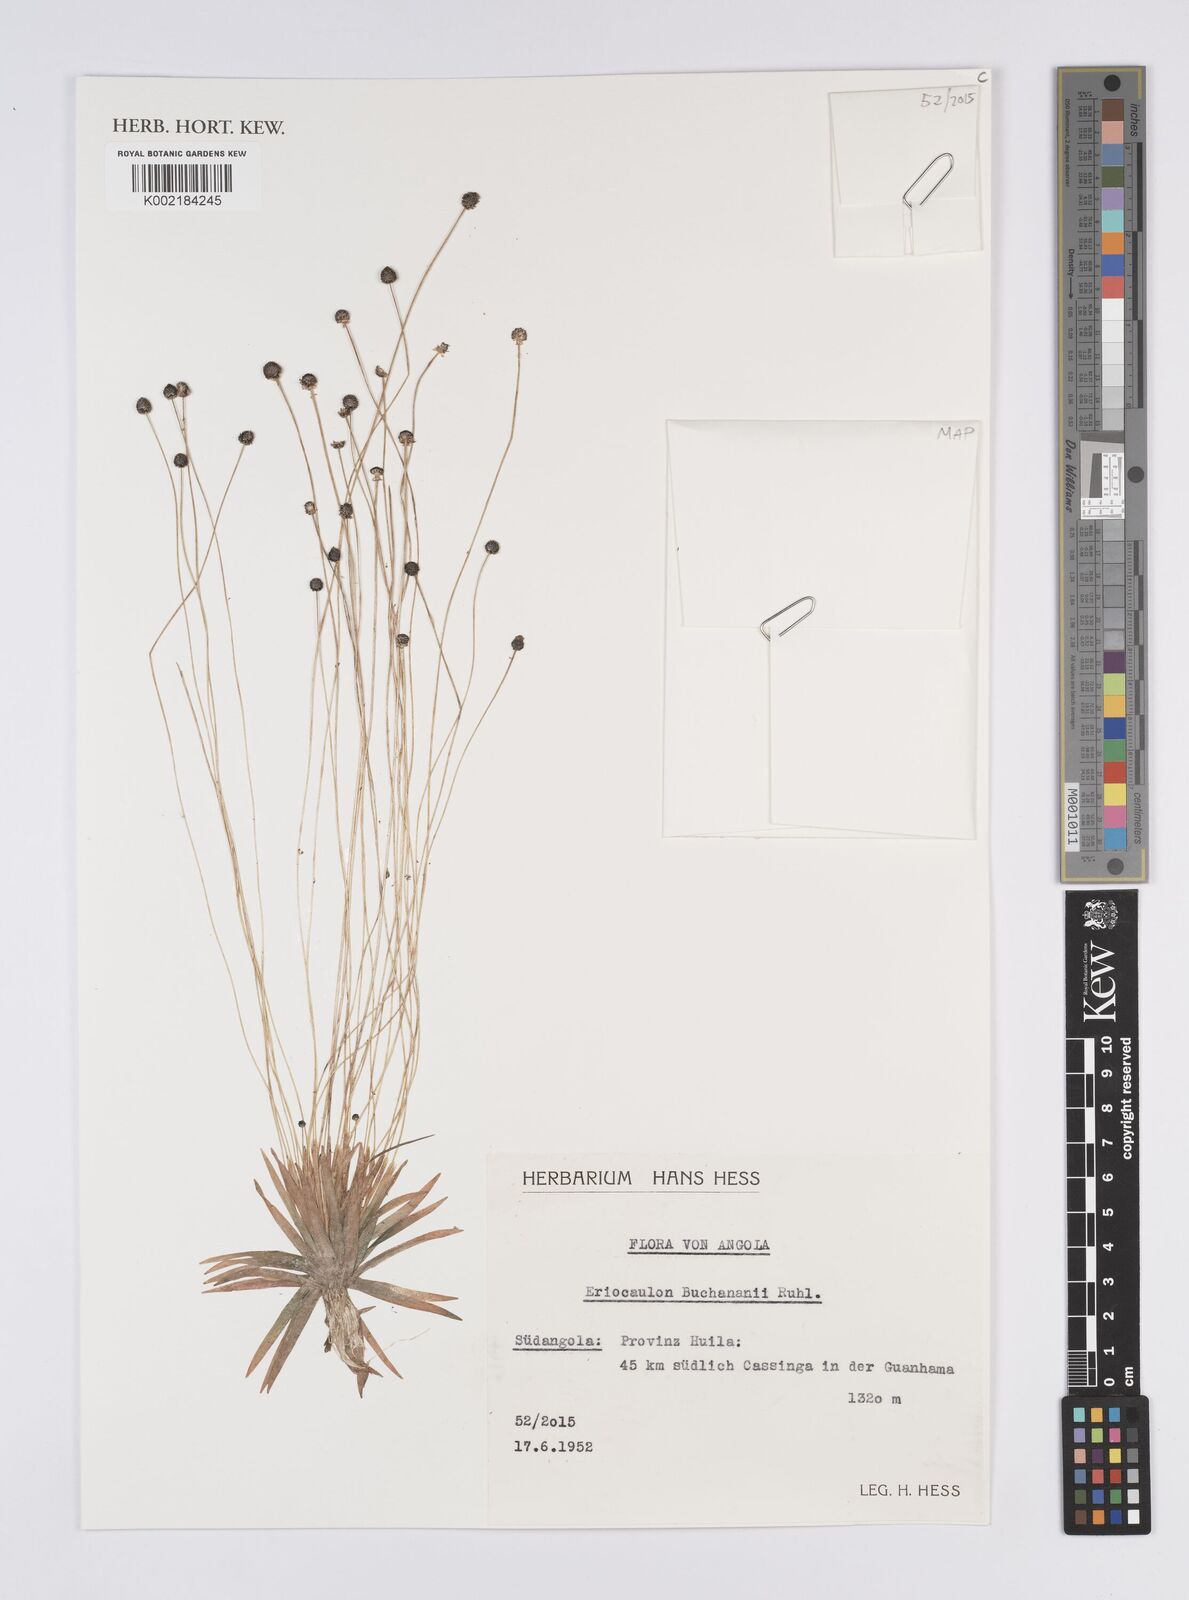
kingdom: Plantae
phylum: Tracheophyta
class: Liliopsida
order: Poales
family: Eriocaulaceae
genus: Eriocaulon
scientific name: Eriocaulon buchananii
